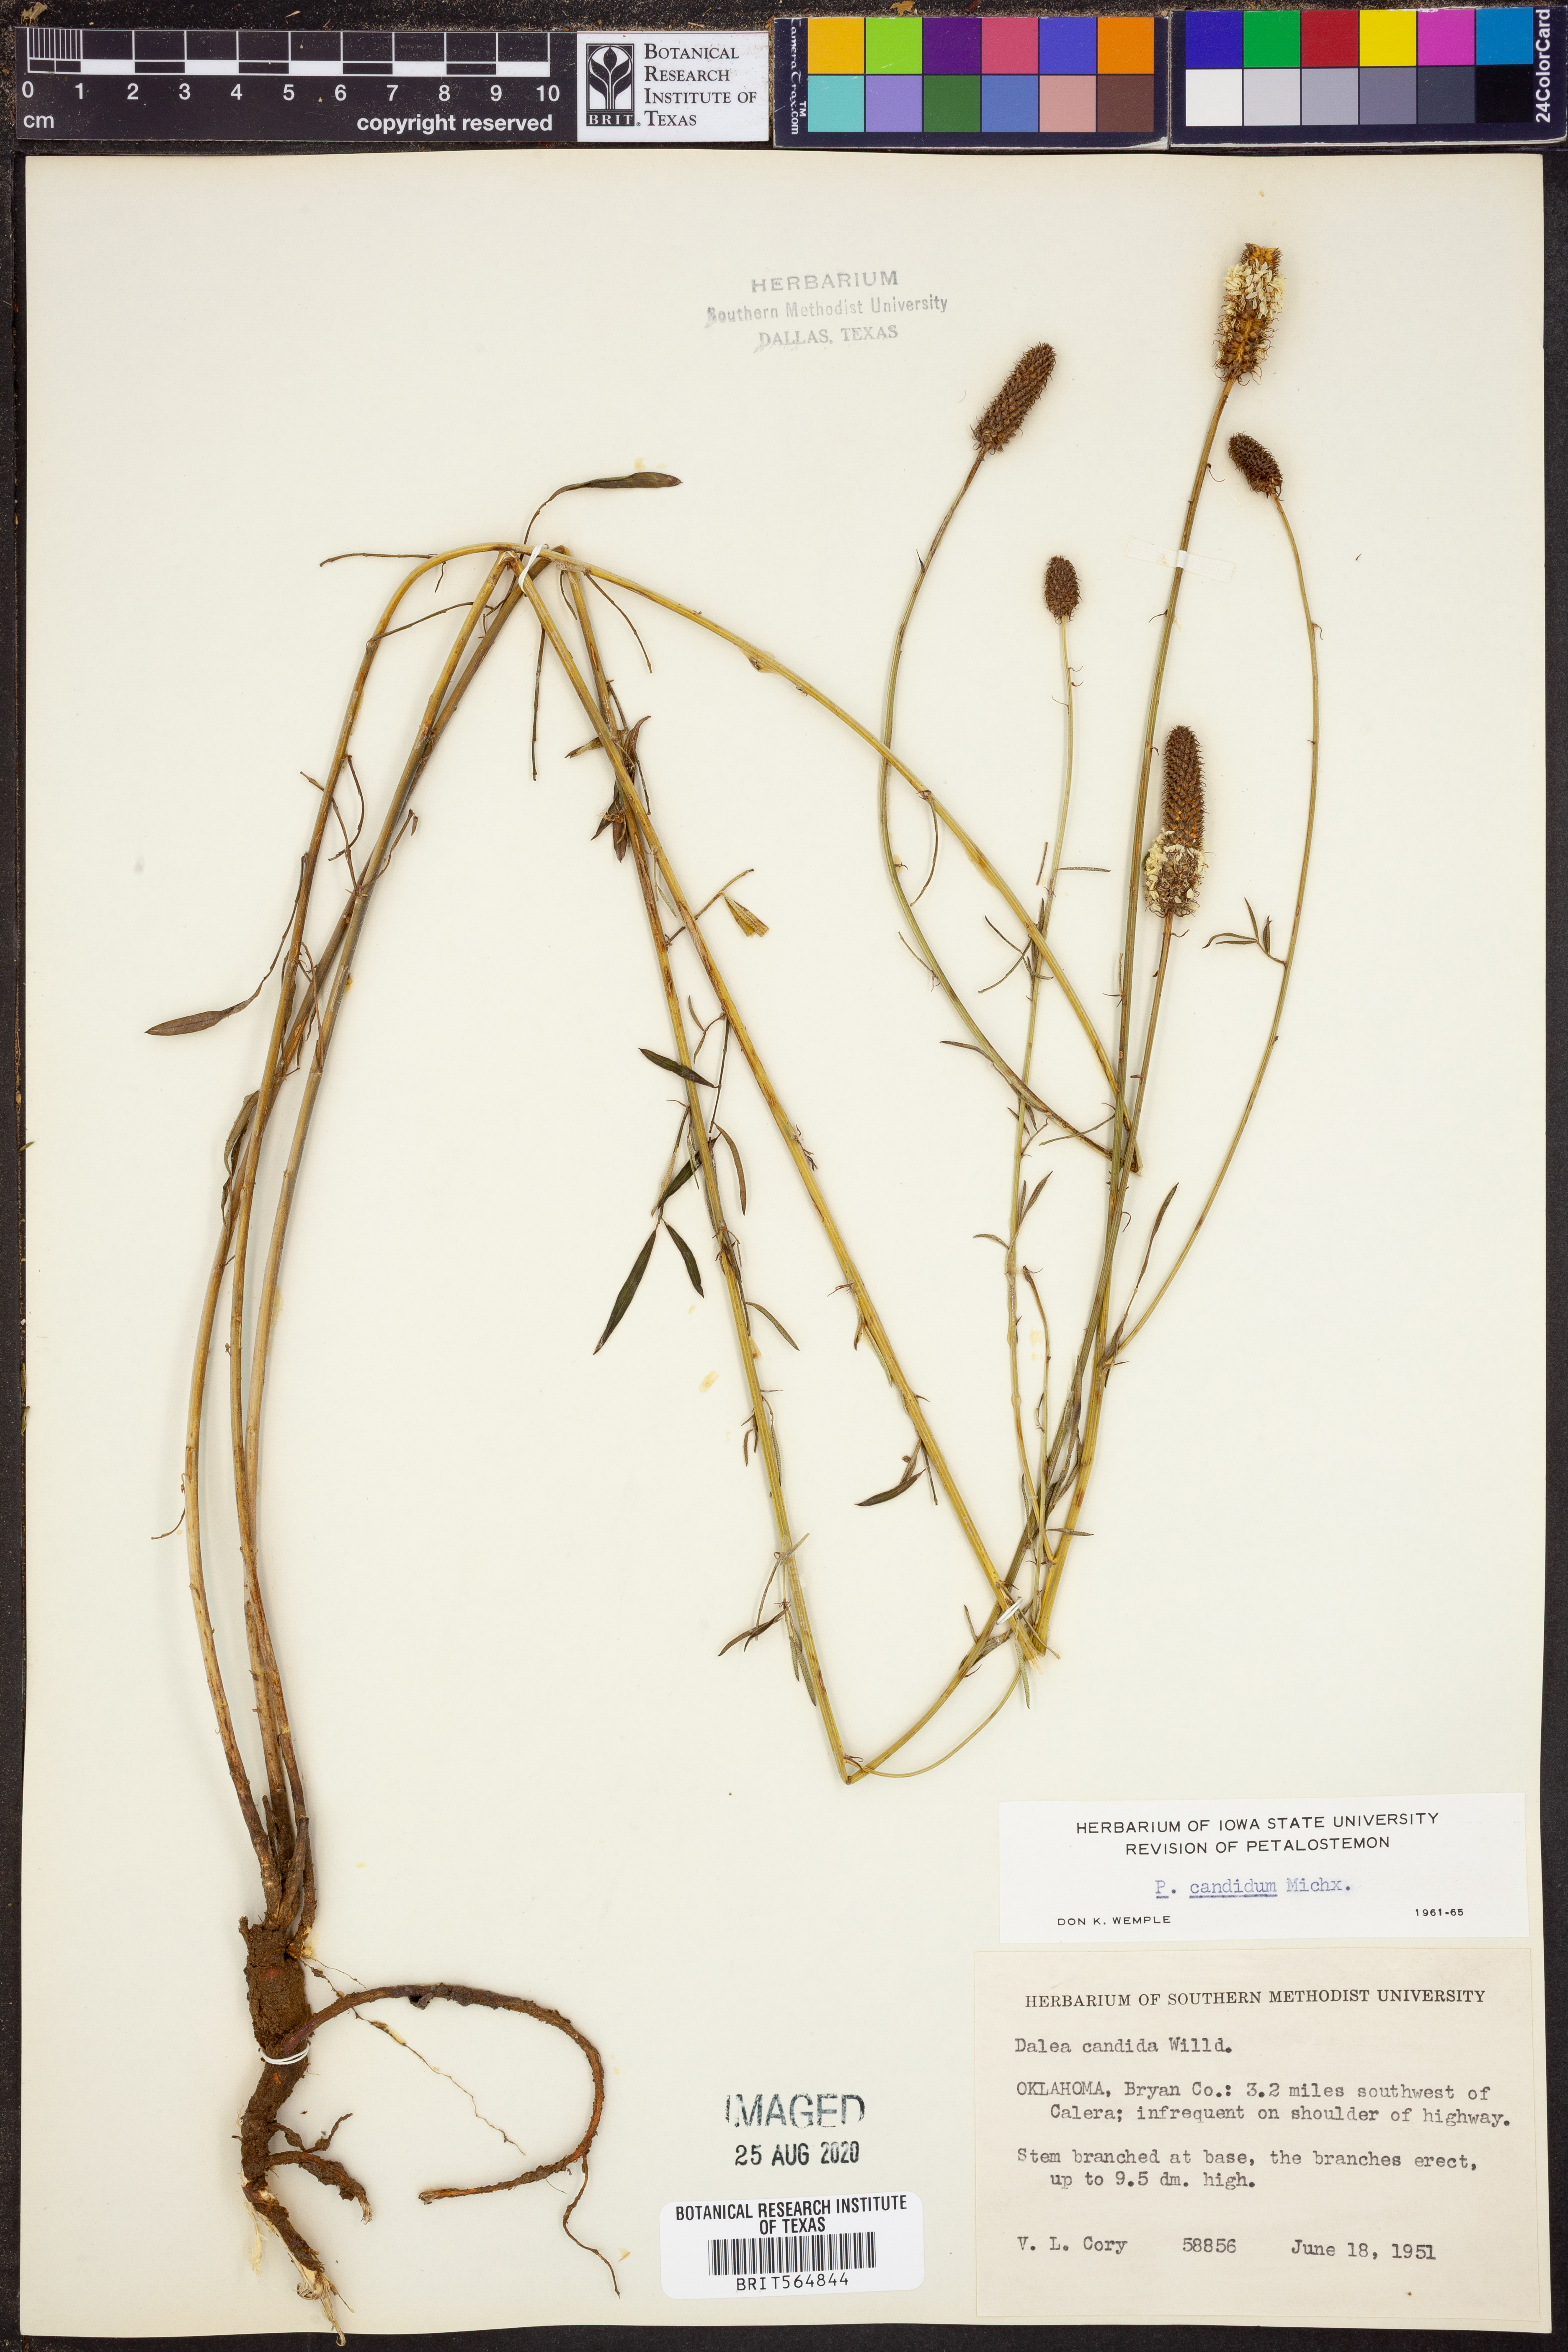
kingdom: Plantae
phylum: Tracheophyta
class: Magnoliopsida
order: Fabales
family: Fabaceae
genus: Dalea
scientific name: Dalea candida
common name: White prairie-clover
